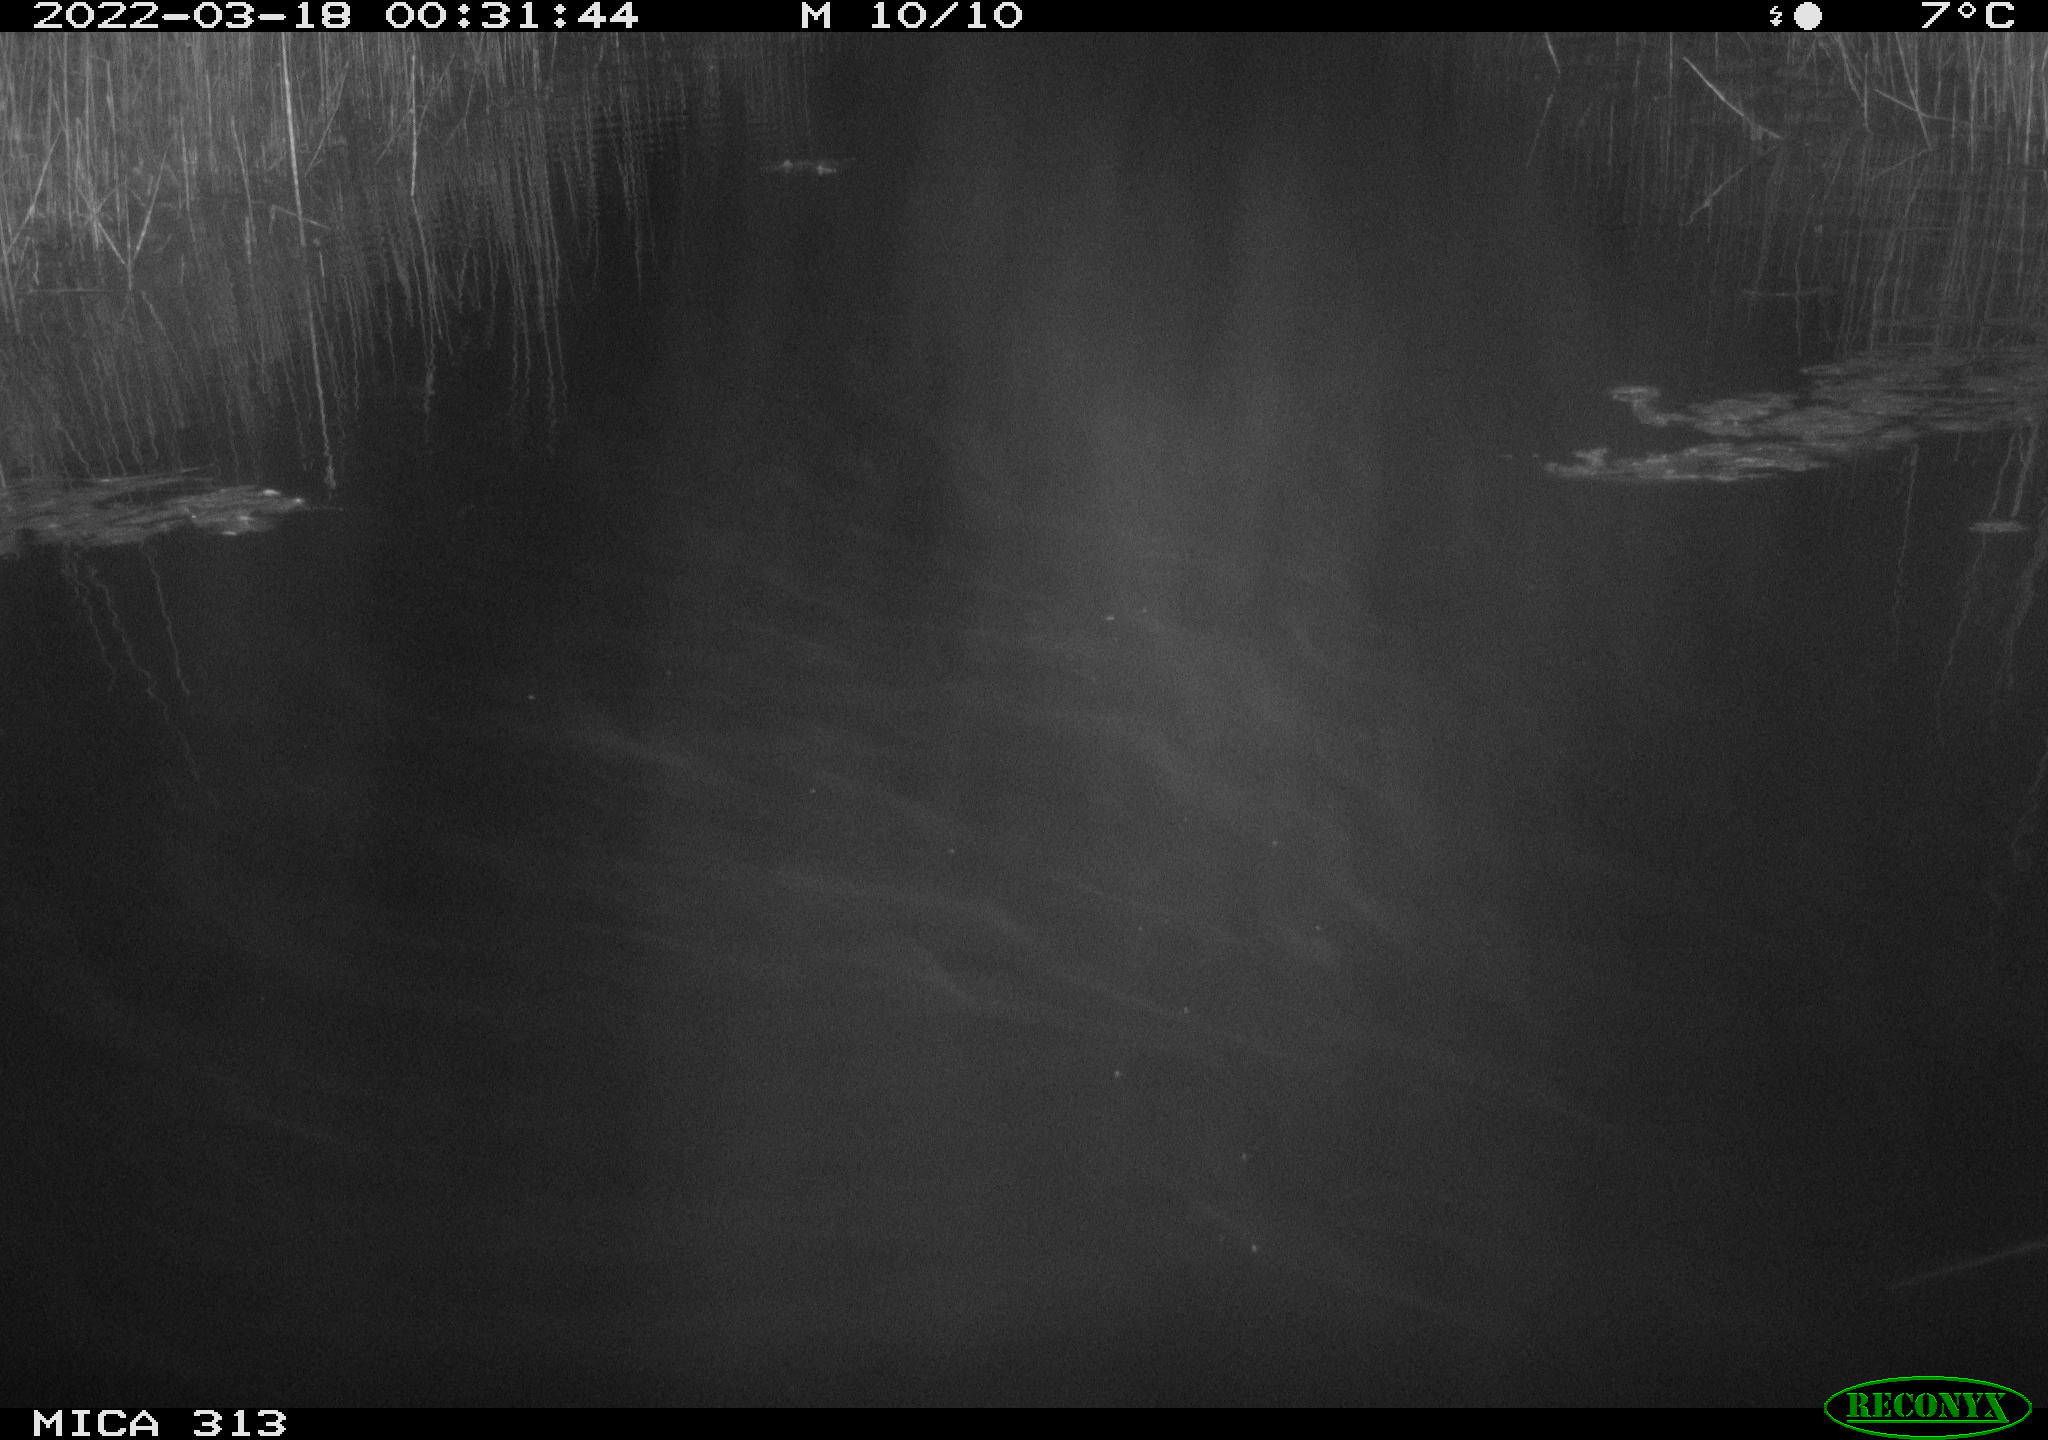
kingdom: Animalia
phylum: Chordata
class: Aves
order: Gruiformes
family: Rallidae
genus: Gallinula
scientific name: Gallinula chloropus
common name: Common moorhen
